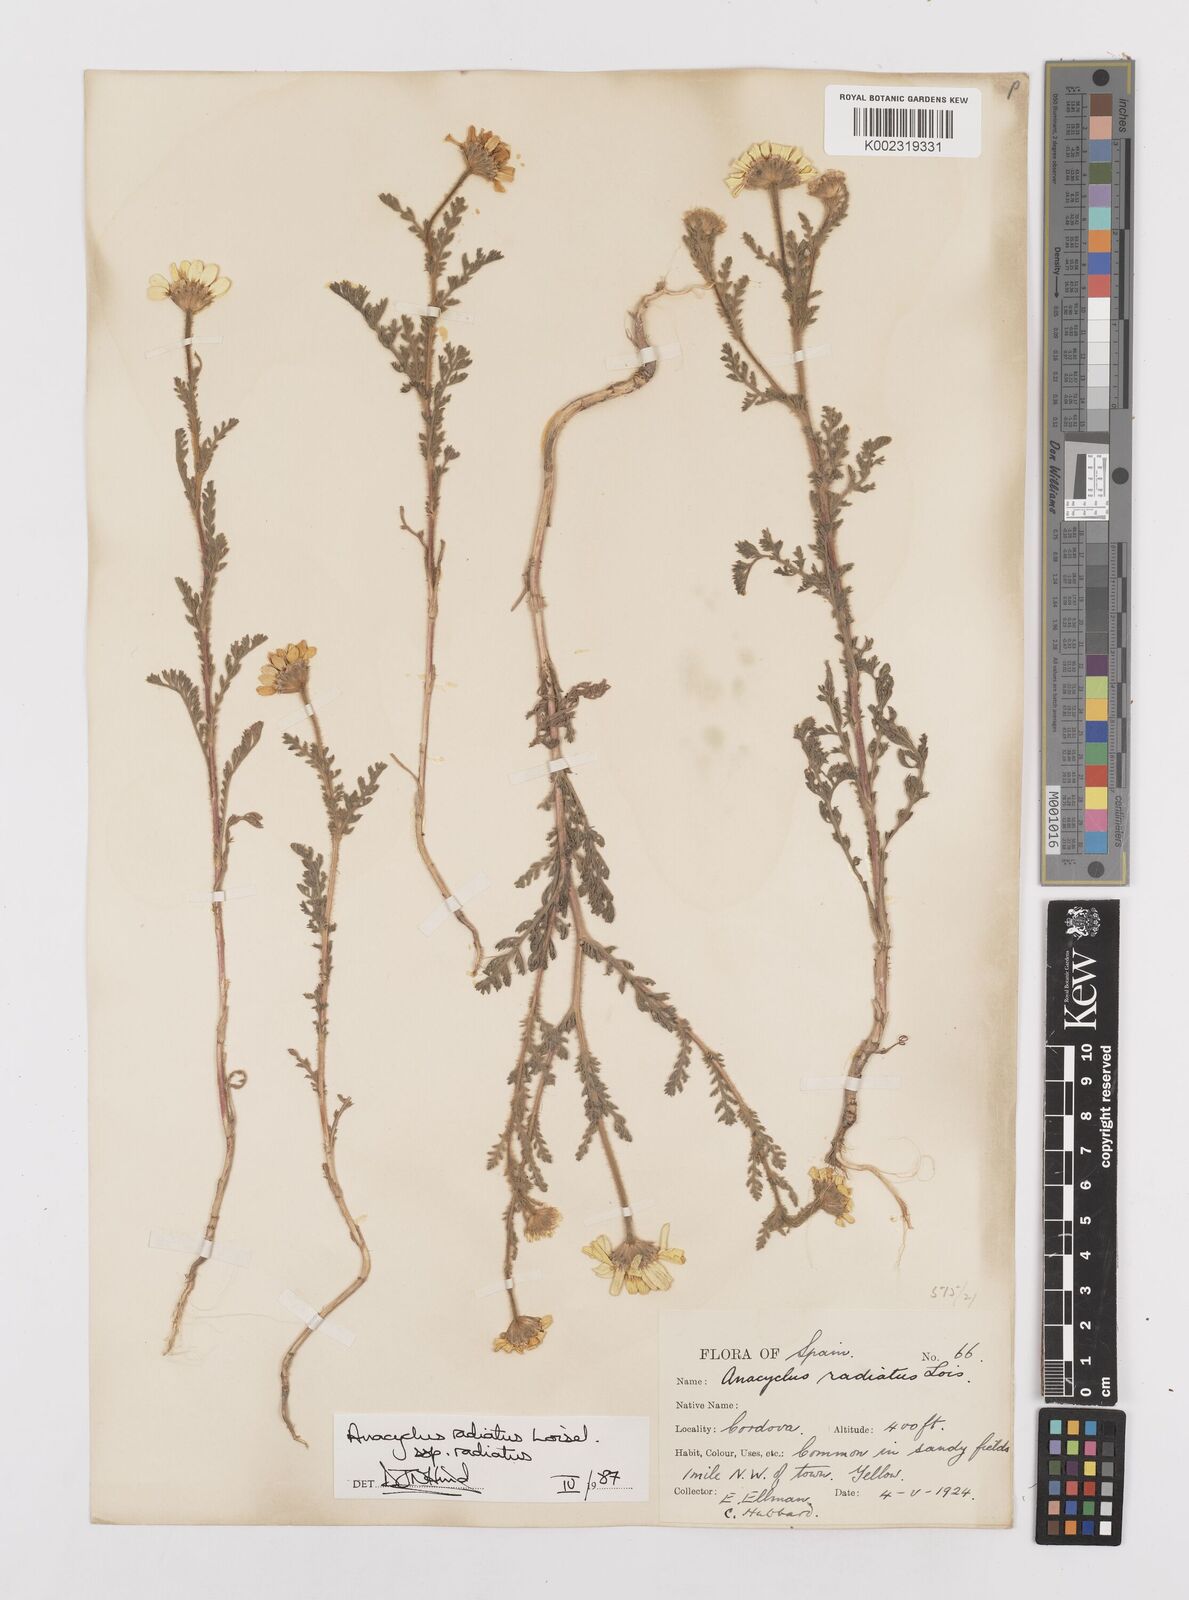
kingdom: Plantae
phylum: Tracheophyta
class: Magnoliopsida
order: Asterales
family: Asteraceae
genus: Anacyclus
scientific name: Anacyclus radiatus
